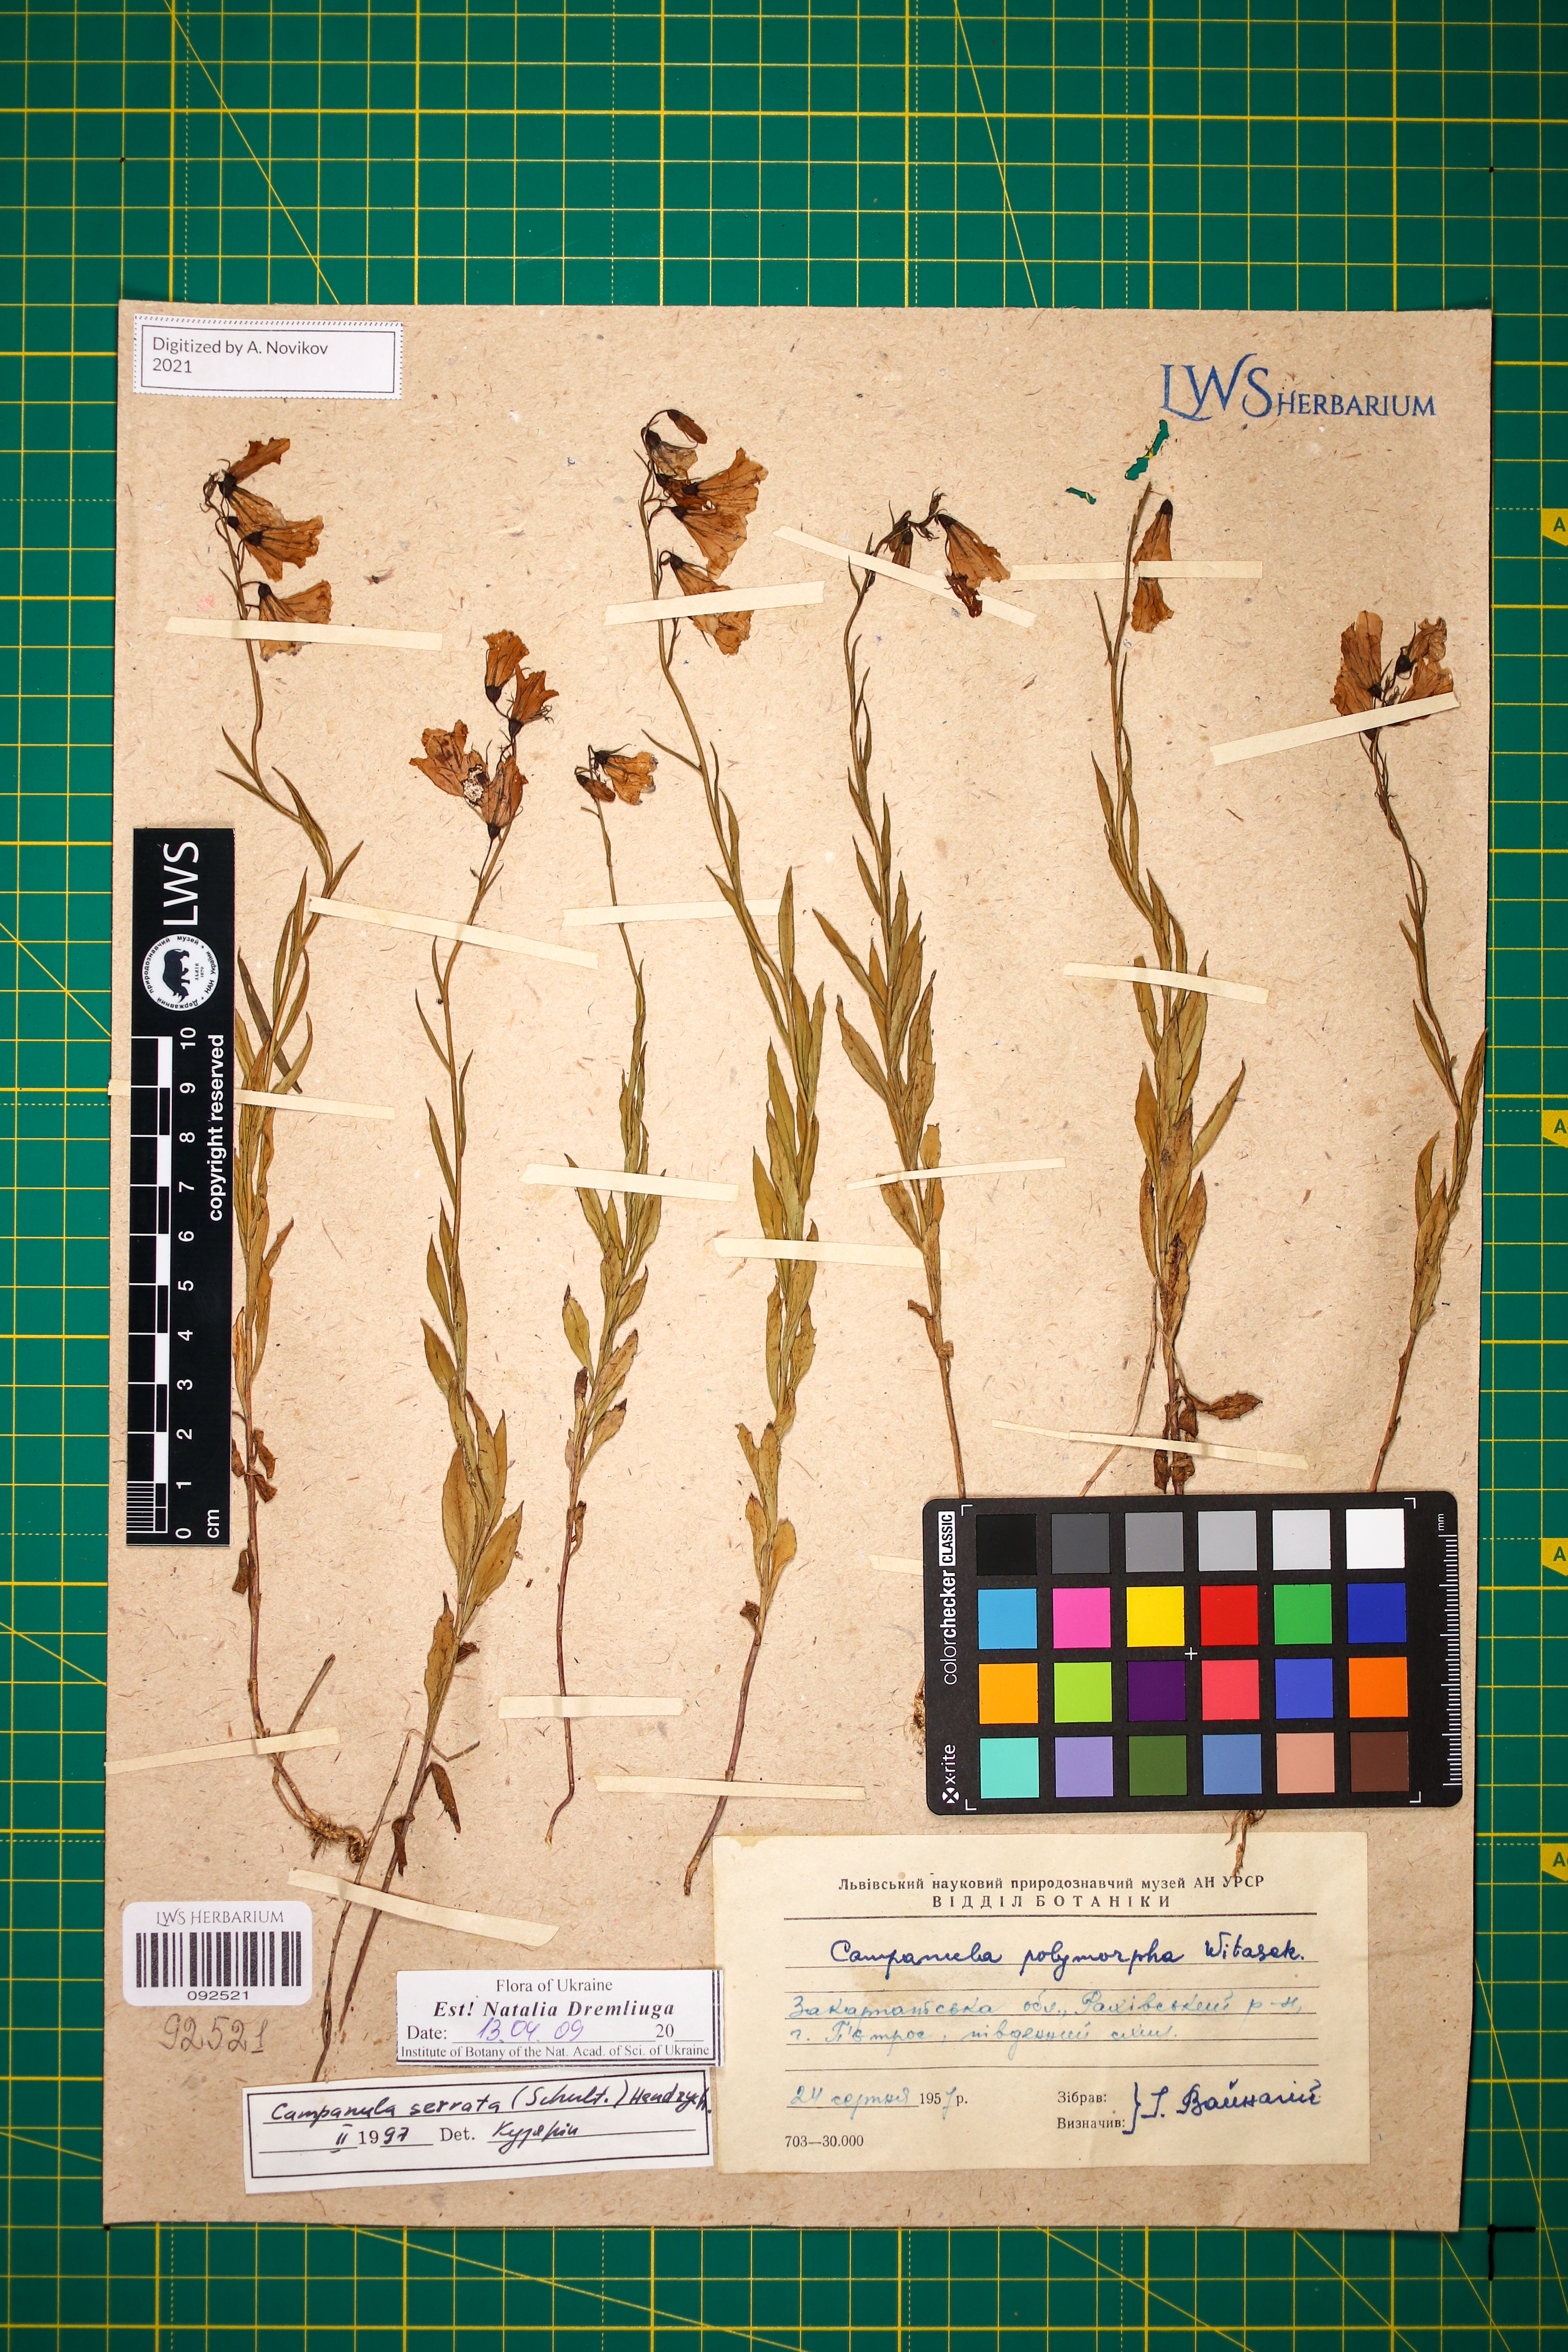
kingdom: Plantae
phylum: Tracheophyta
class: Magnoliopsida
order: Asterales
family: Campanulaceae
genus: Campanula
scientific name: Campanula serrata
